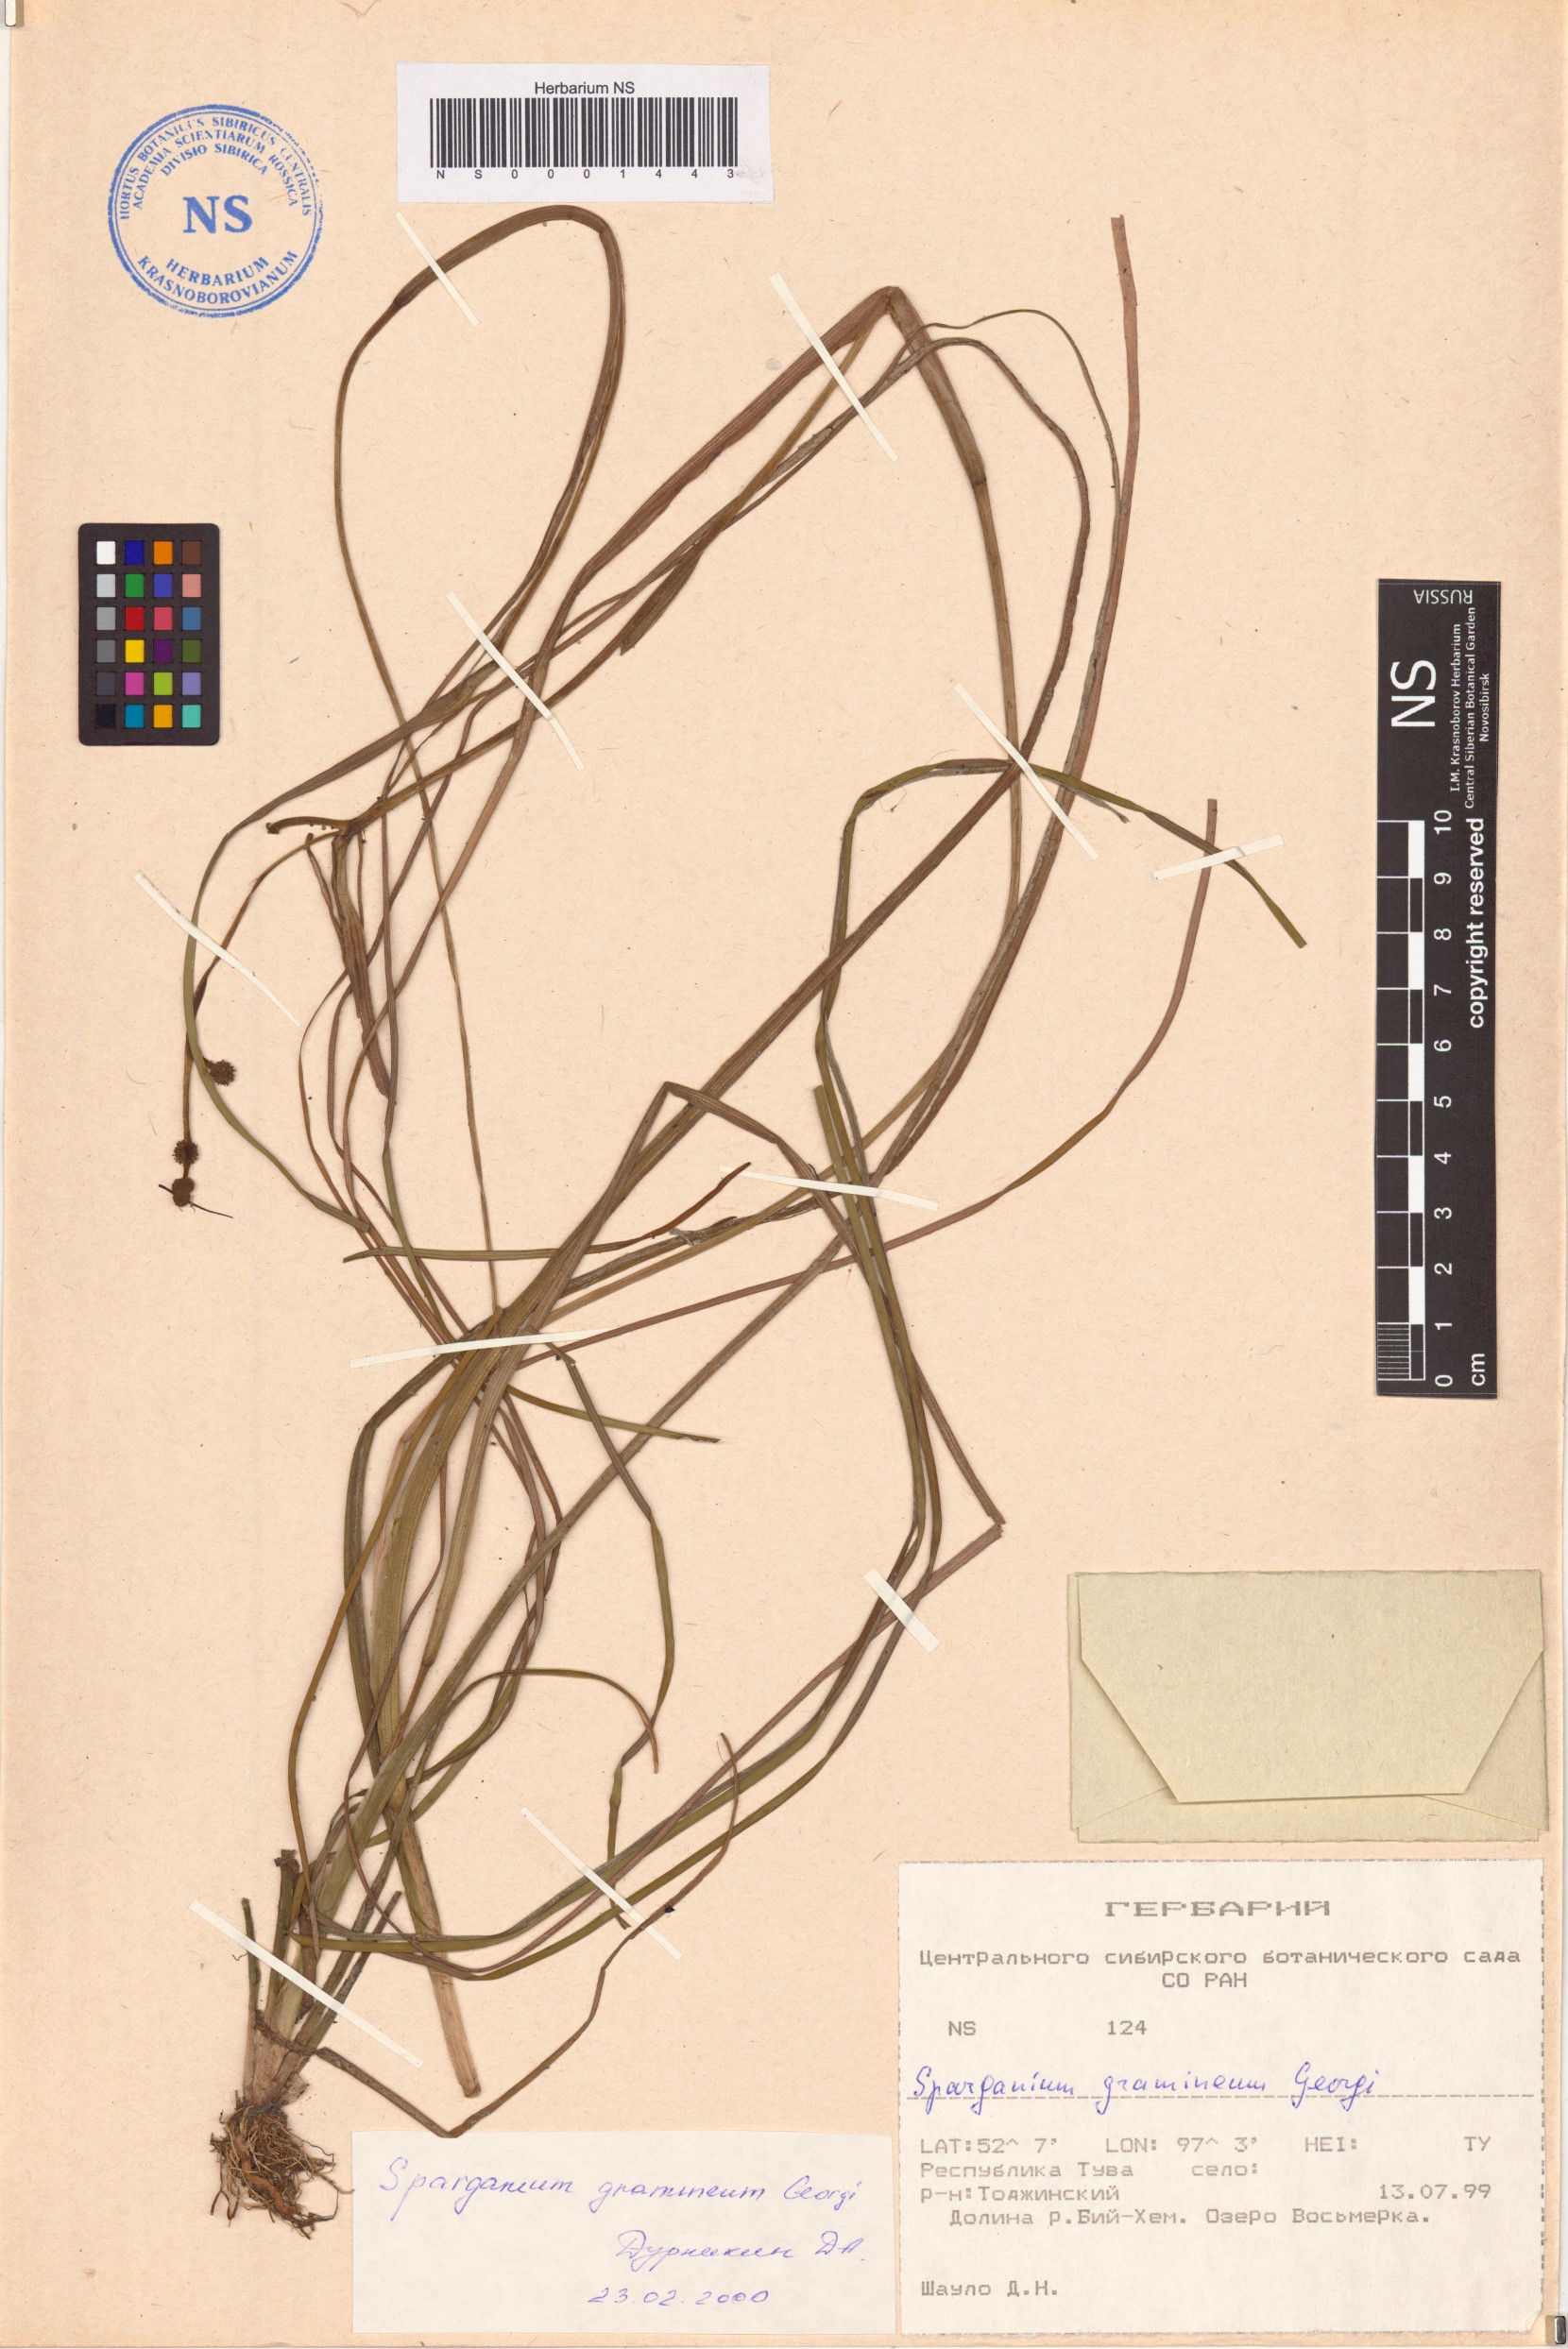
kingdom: Plantae
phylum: Tracheophyta
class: Liliopsida
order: Poales
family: Typhaceae
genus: Sparganium
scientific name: Sparganium gramineum
